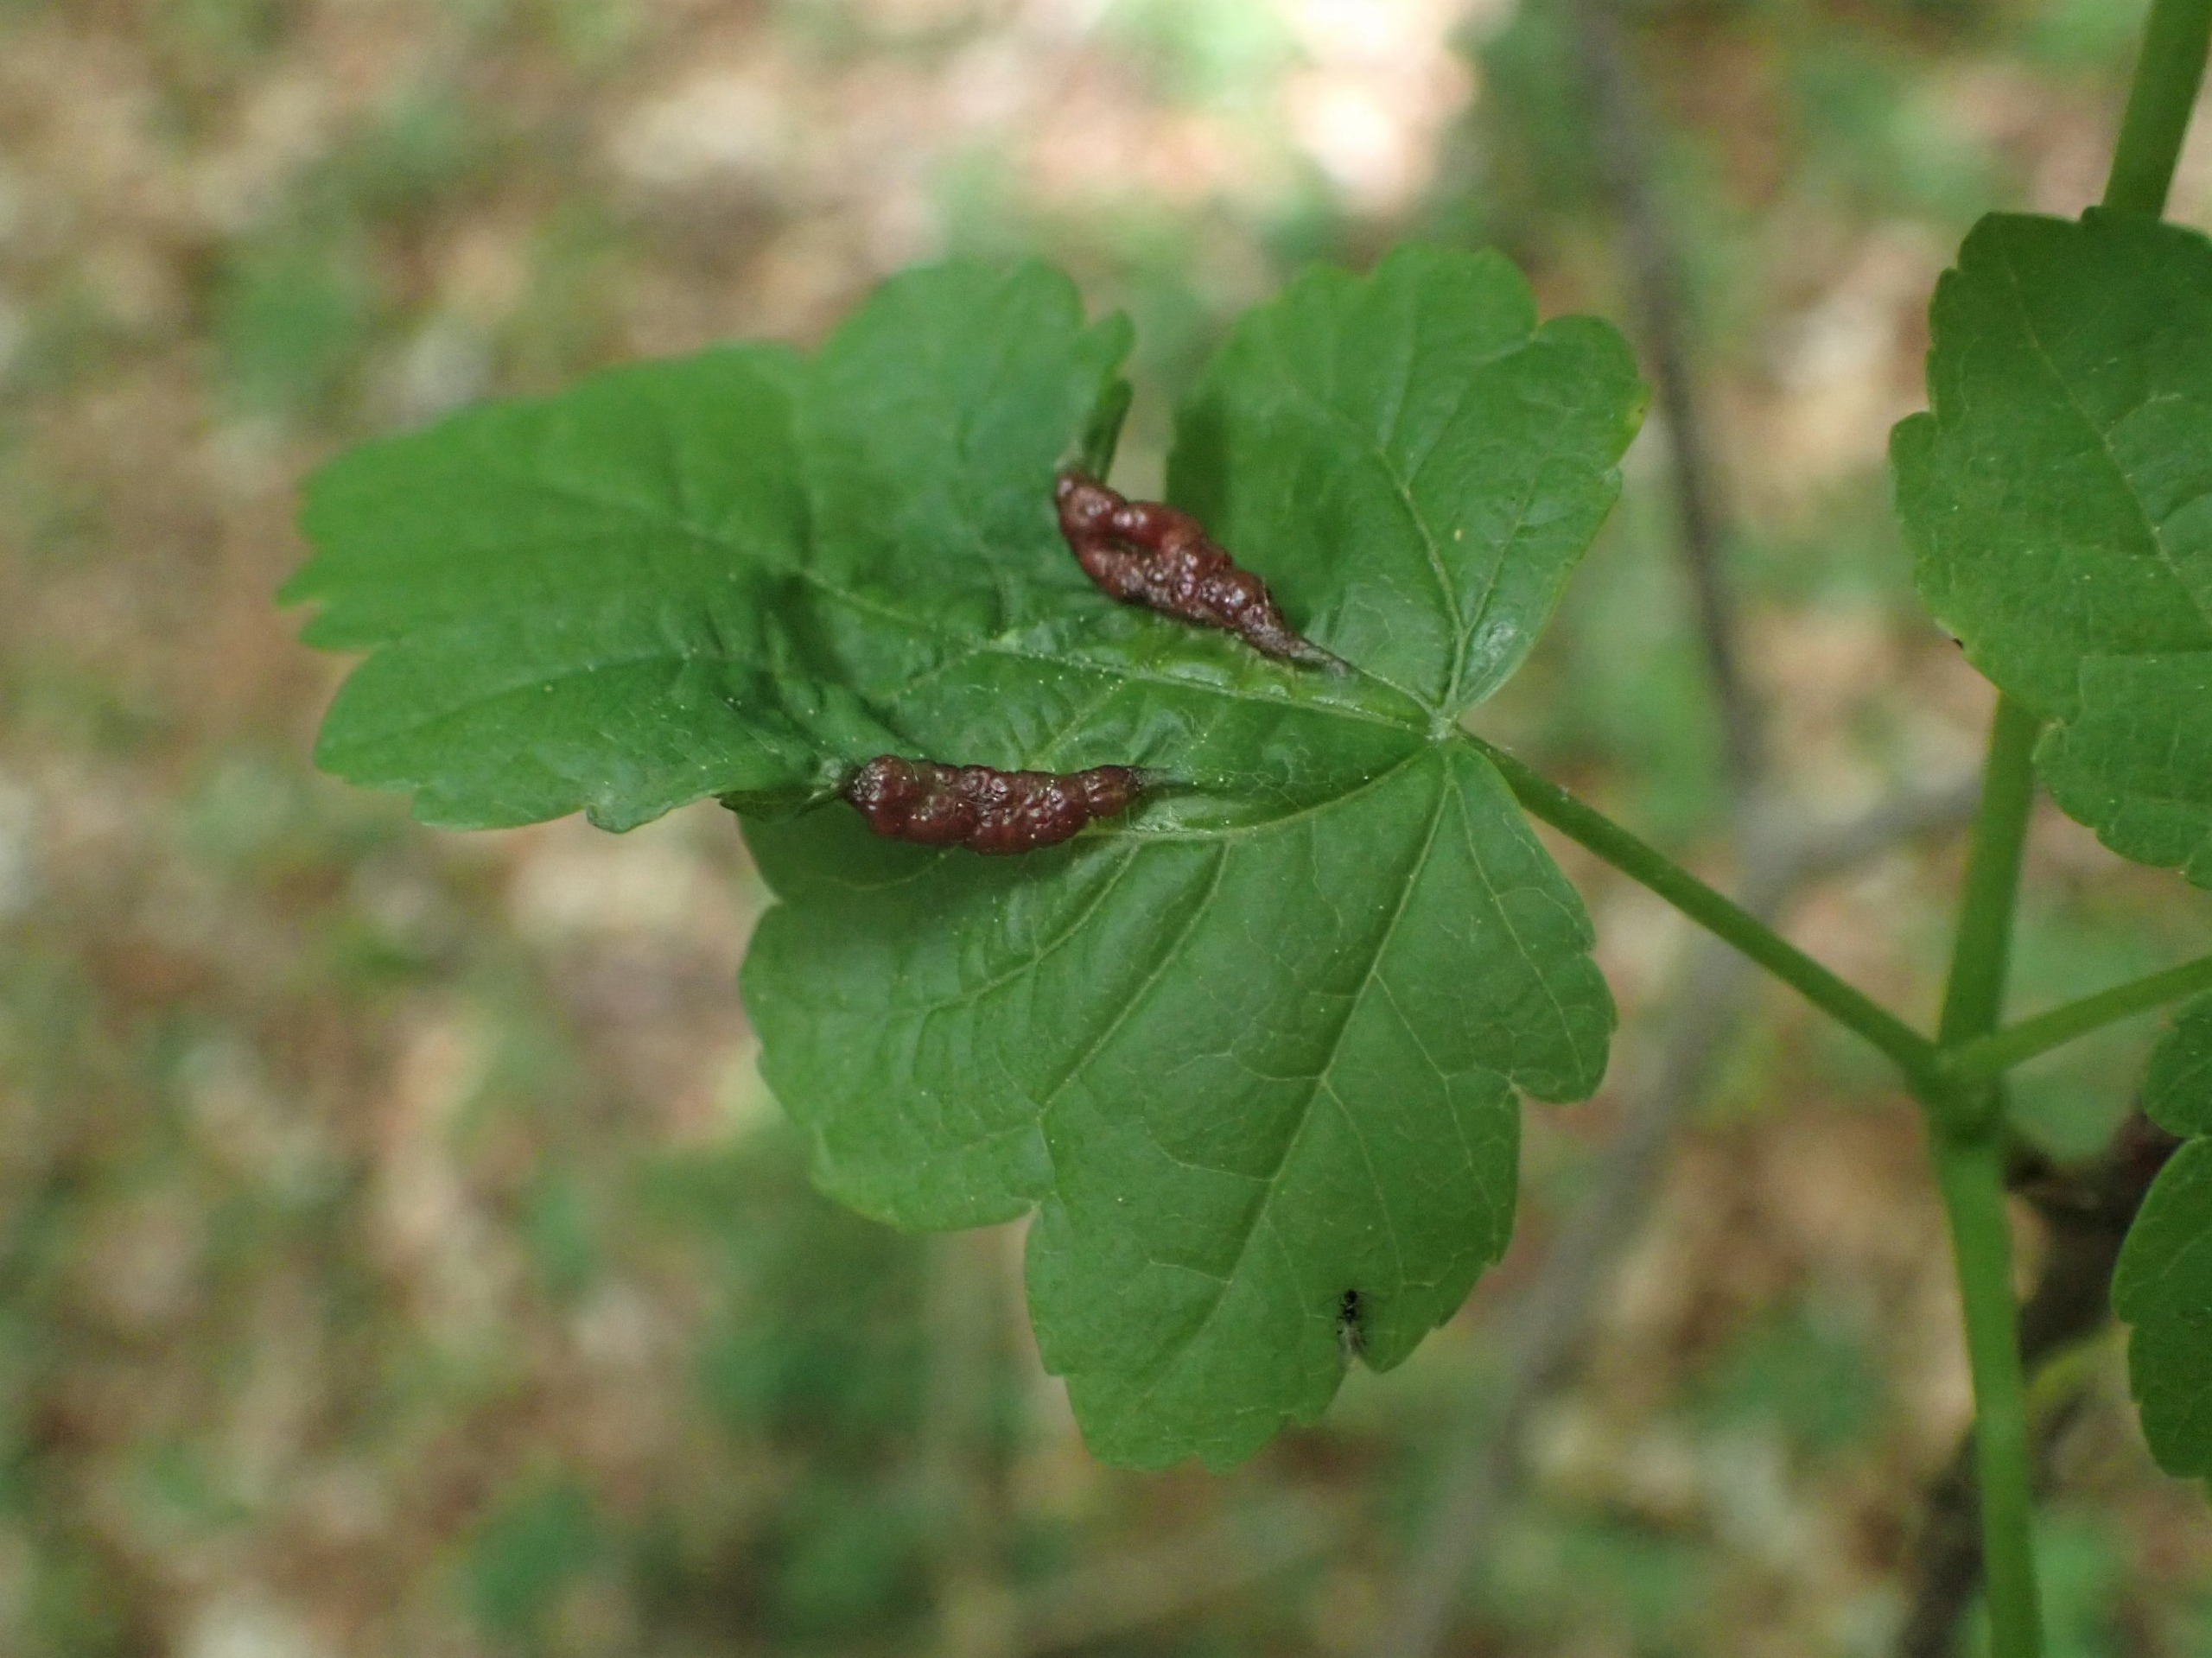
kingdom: Animalia
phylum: Arthropoda
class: Insecta
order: Diptera
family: Cecidomyiidae
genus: Contarinia
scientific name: Contarinia acerplicans
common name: Ahornvulstgalmyg
